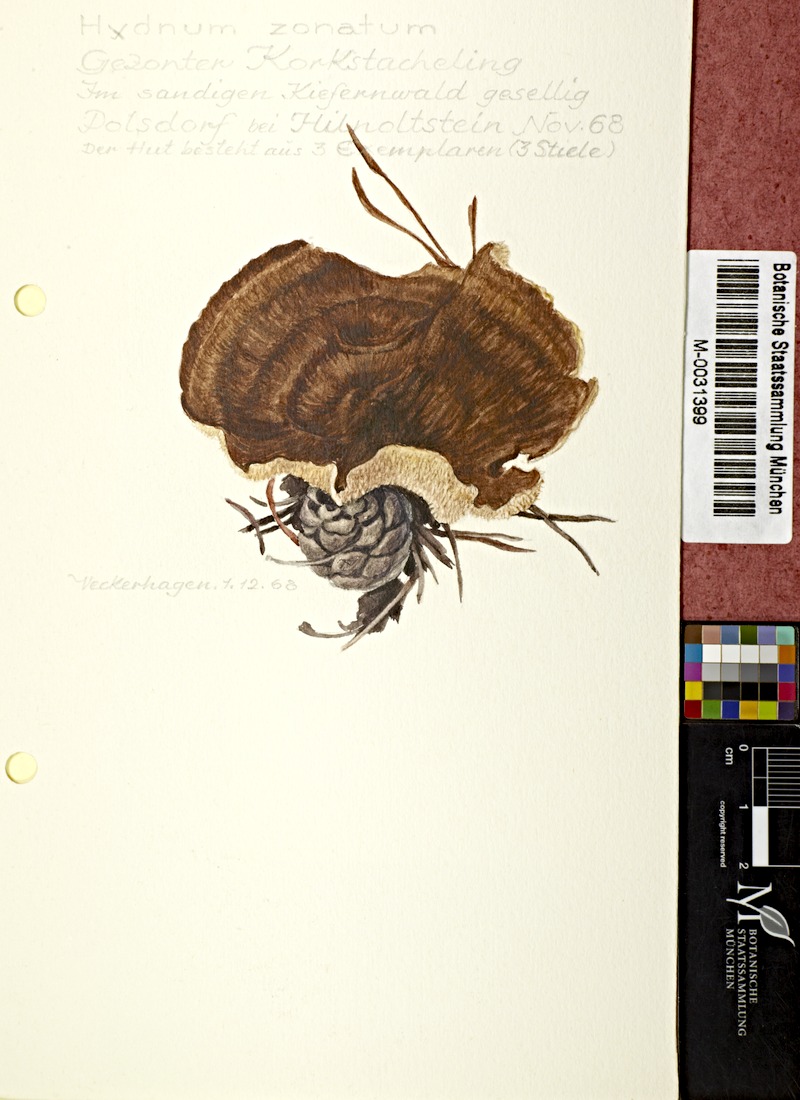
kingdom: Fungi
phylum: Basidiomycota
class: Agaricomycetes
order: Thelephorales
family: Bankeraceae
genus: Hydnellum
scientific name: Hydnellum concrescens
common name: Zoned tooth
